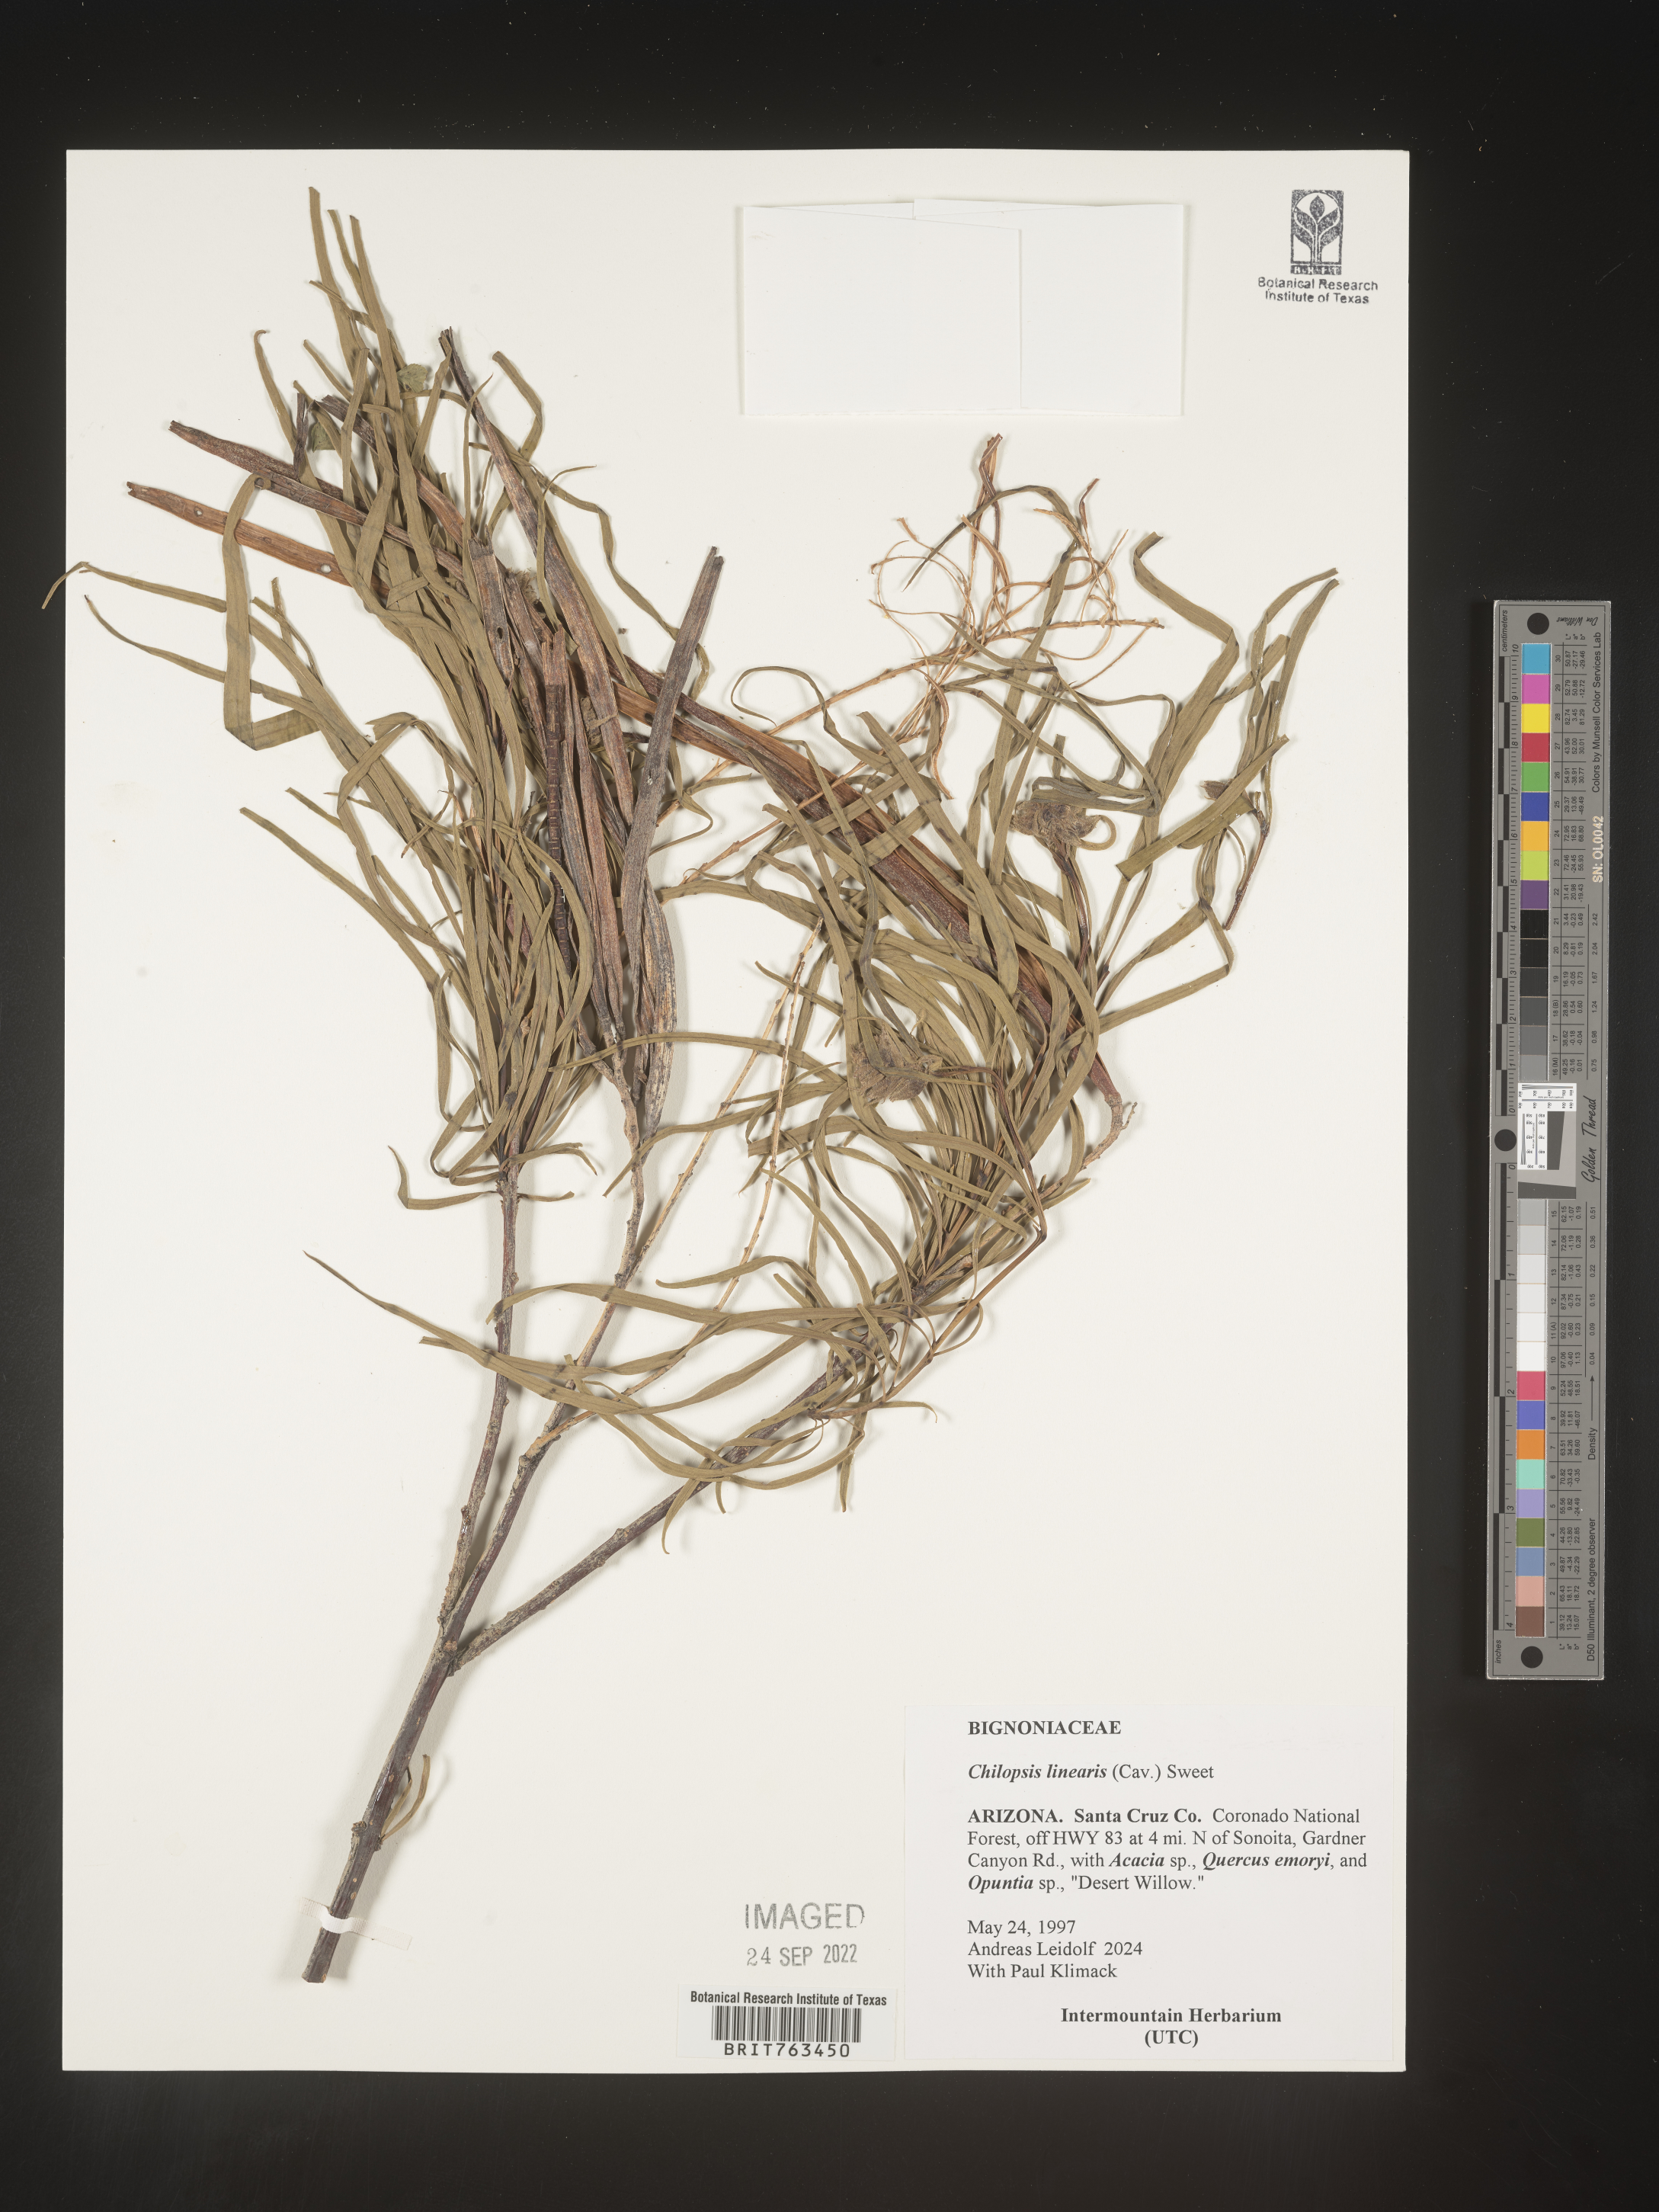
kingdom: Plantae
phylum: Tracheophyta
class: Magnoliopsida
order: Lamiales
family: Bignoniaceae
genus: Chilopsis
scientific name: Chilopsis linearis
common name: Desert-willow
